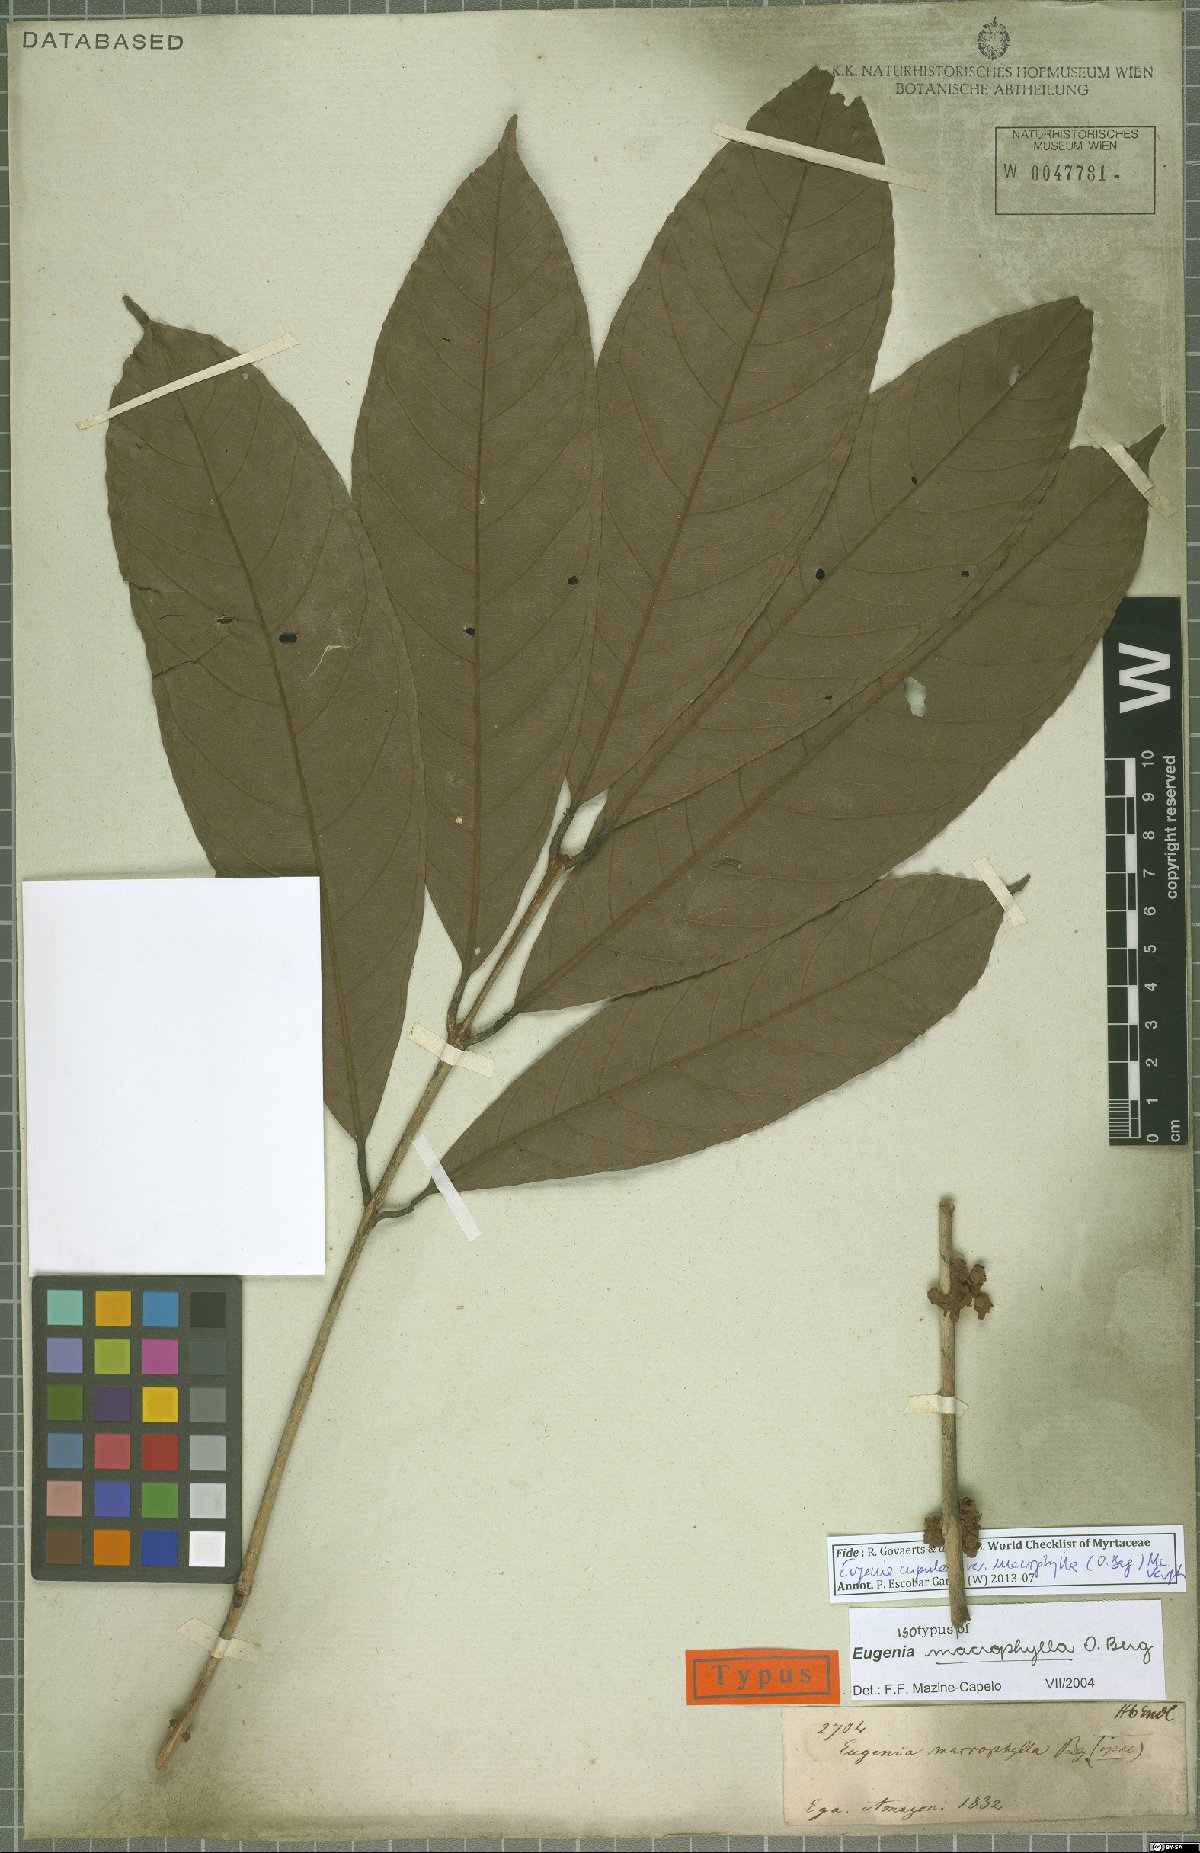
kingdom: Plantae
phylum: Tracheophyta
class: Magnoliopsida
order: Myrtales
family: Myrtaceae
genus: Eugenia
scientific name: Eugenia glomeruliflora
